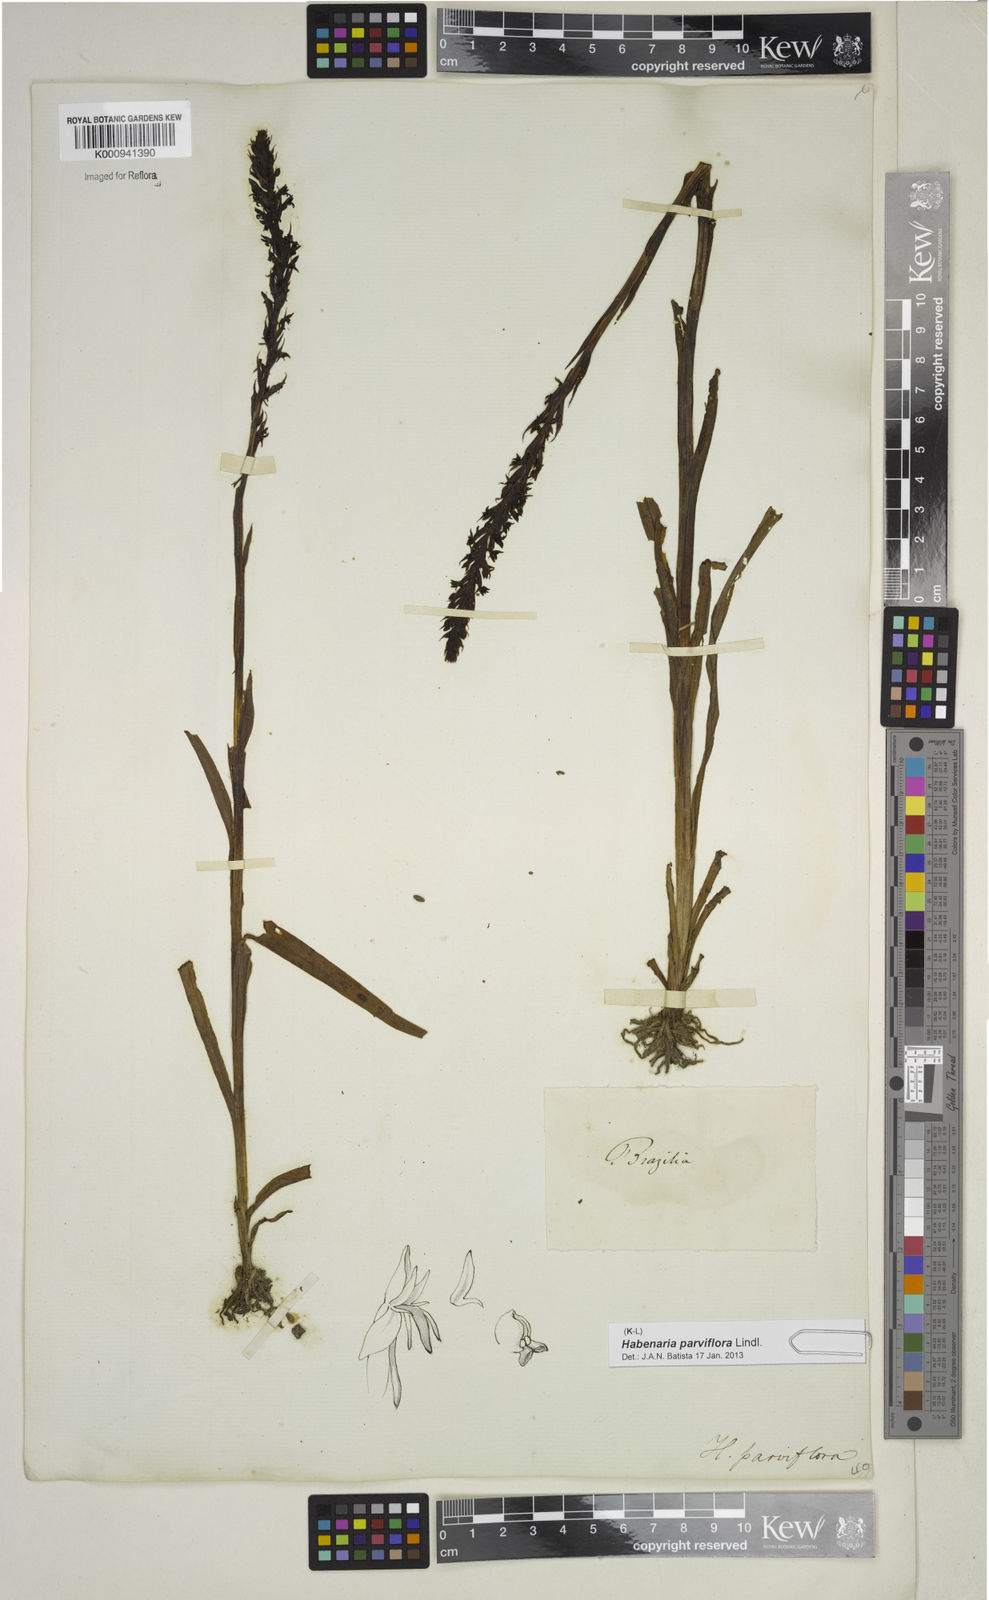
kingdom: Plantae
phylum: Tracheophyta
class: Liliopsida
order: Asparagales
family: Orchidaceae
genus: Habenaria
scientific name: Habenaria parviflora
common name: Small flowered habenaria
